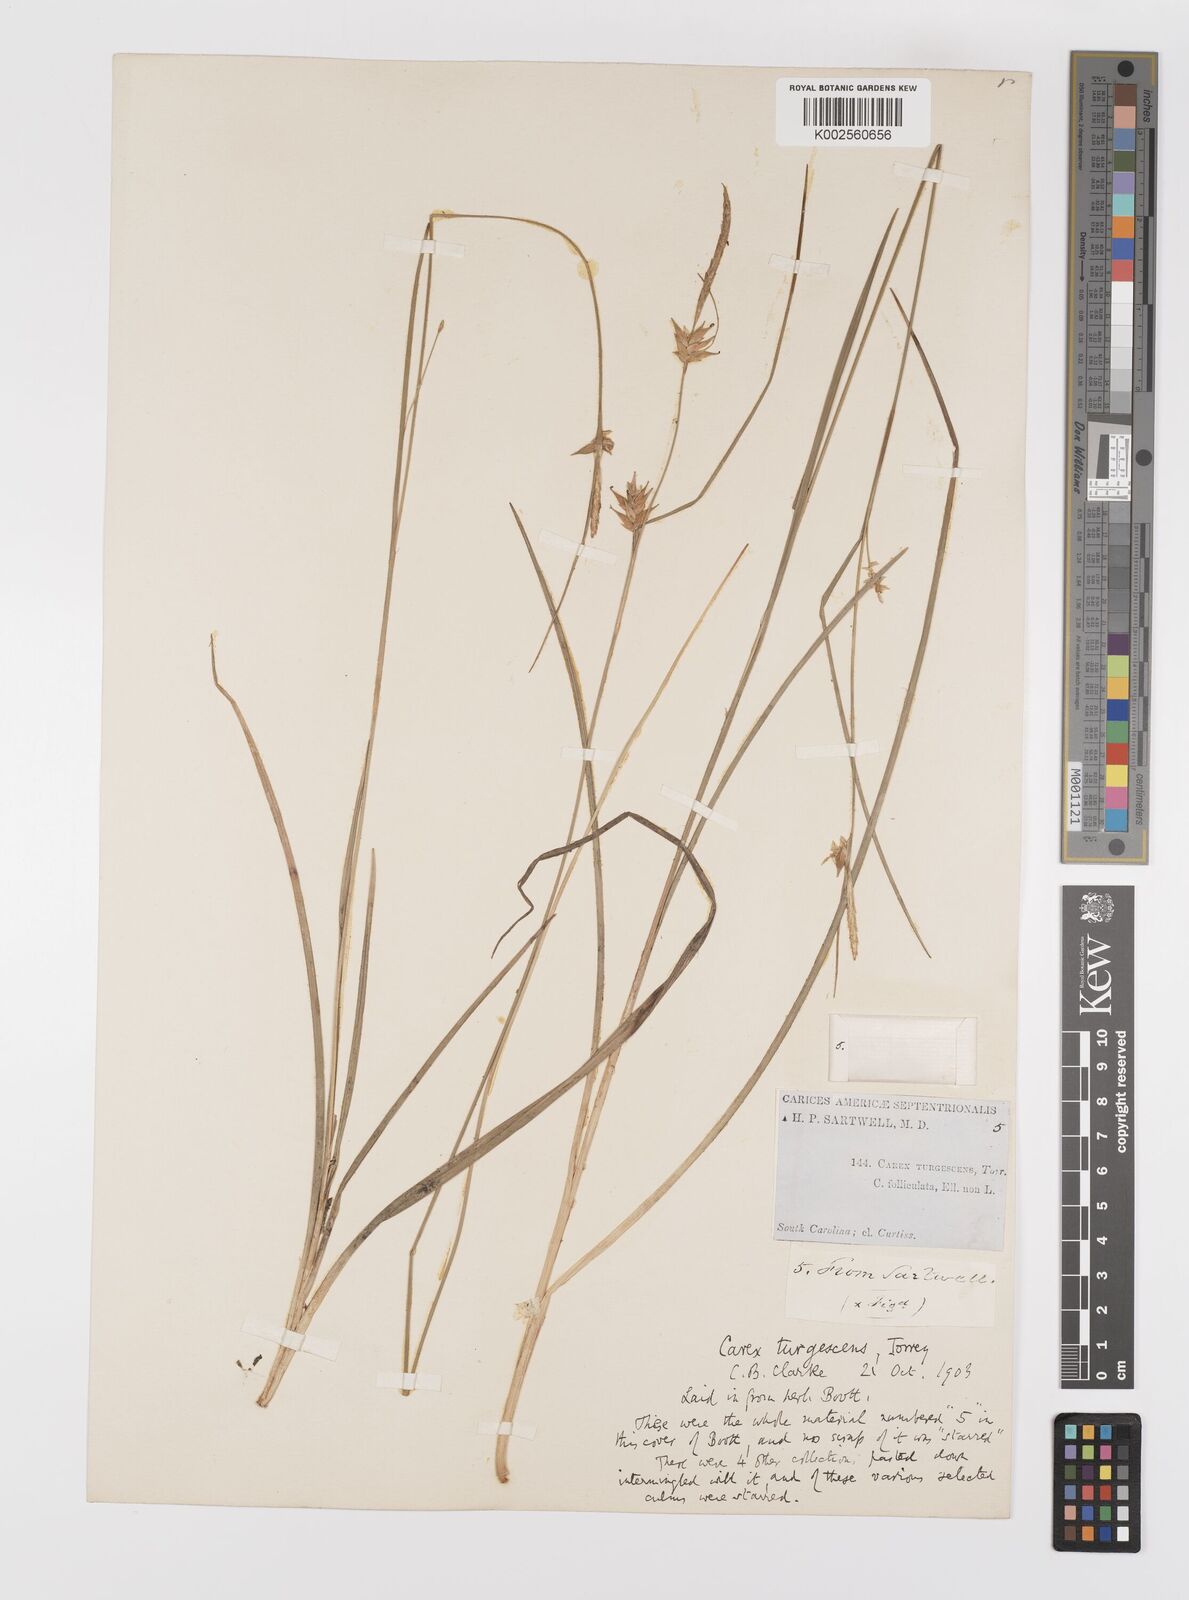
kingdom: Plantae
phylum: Tracheophyta
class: Liliopsida
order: Poales
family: Cyperaceae
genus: Carex
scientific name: Carex turgescens
